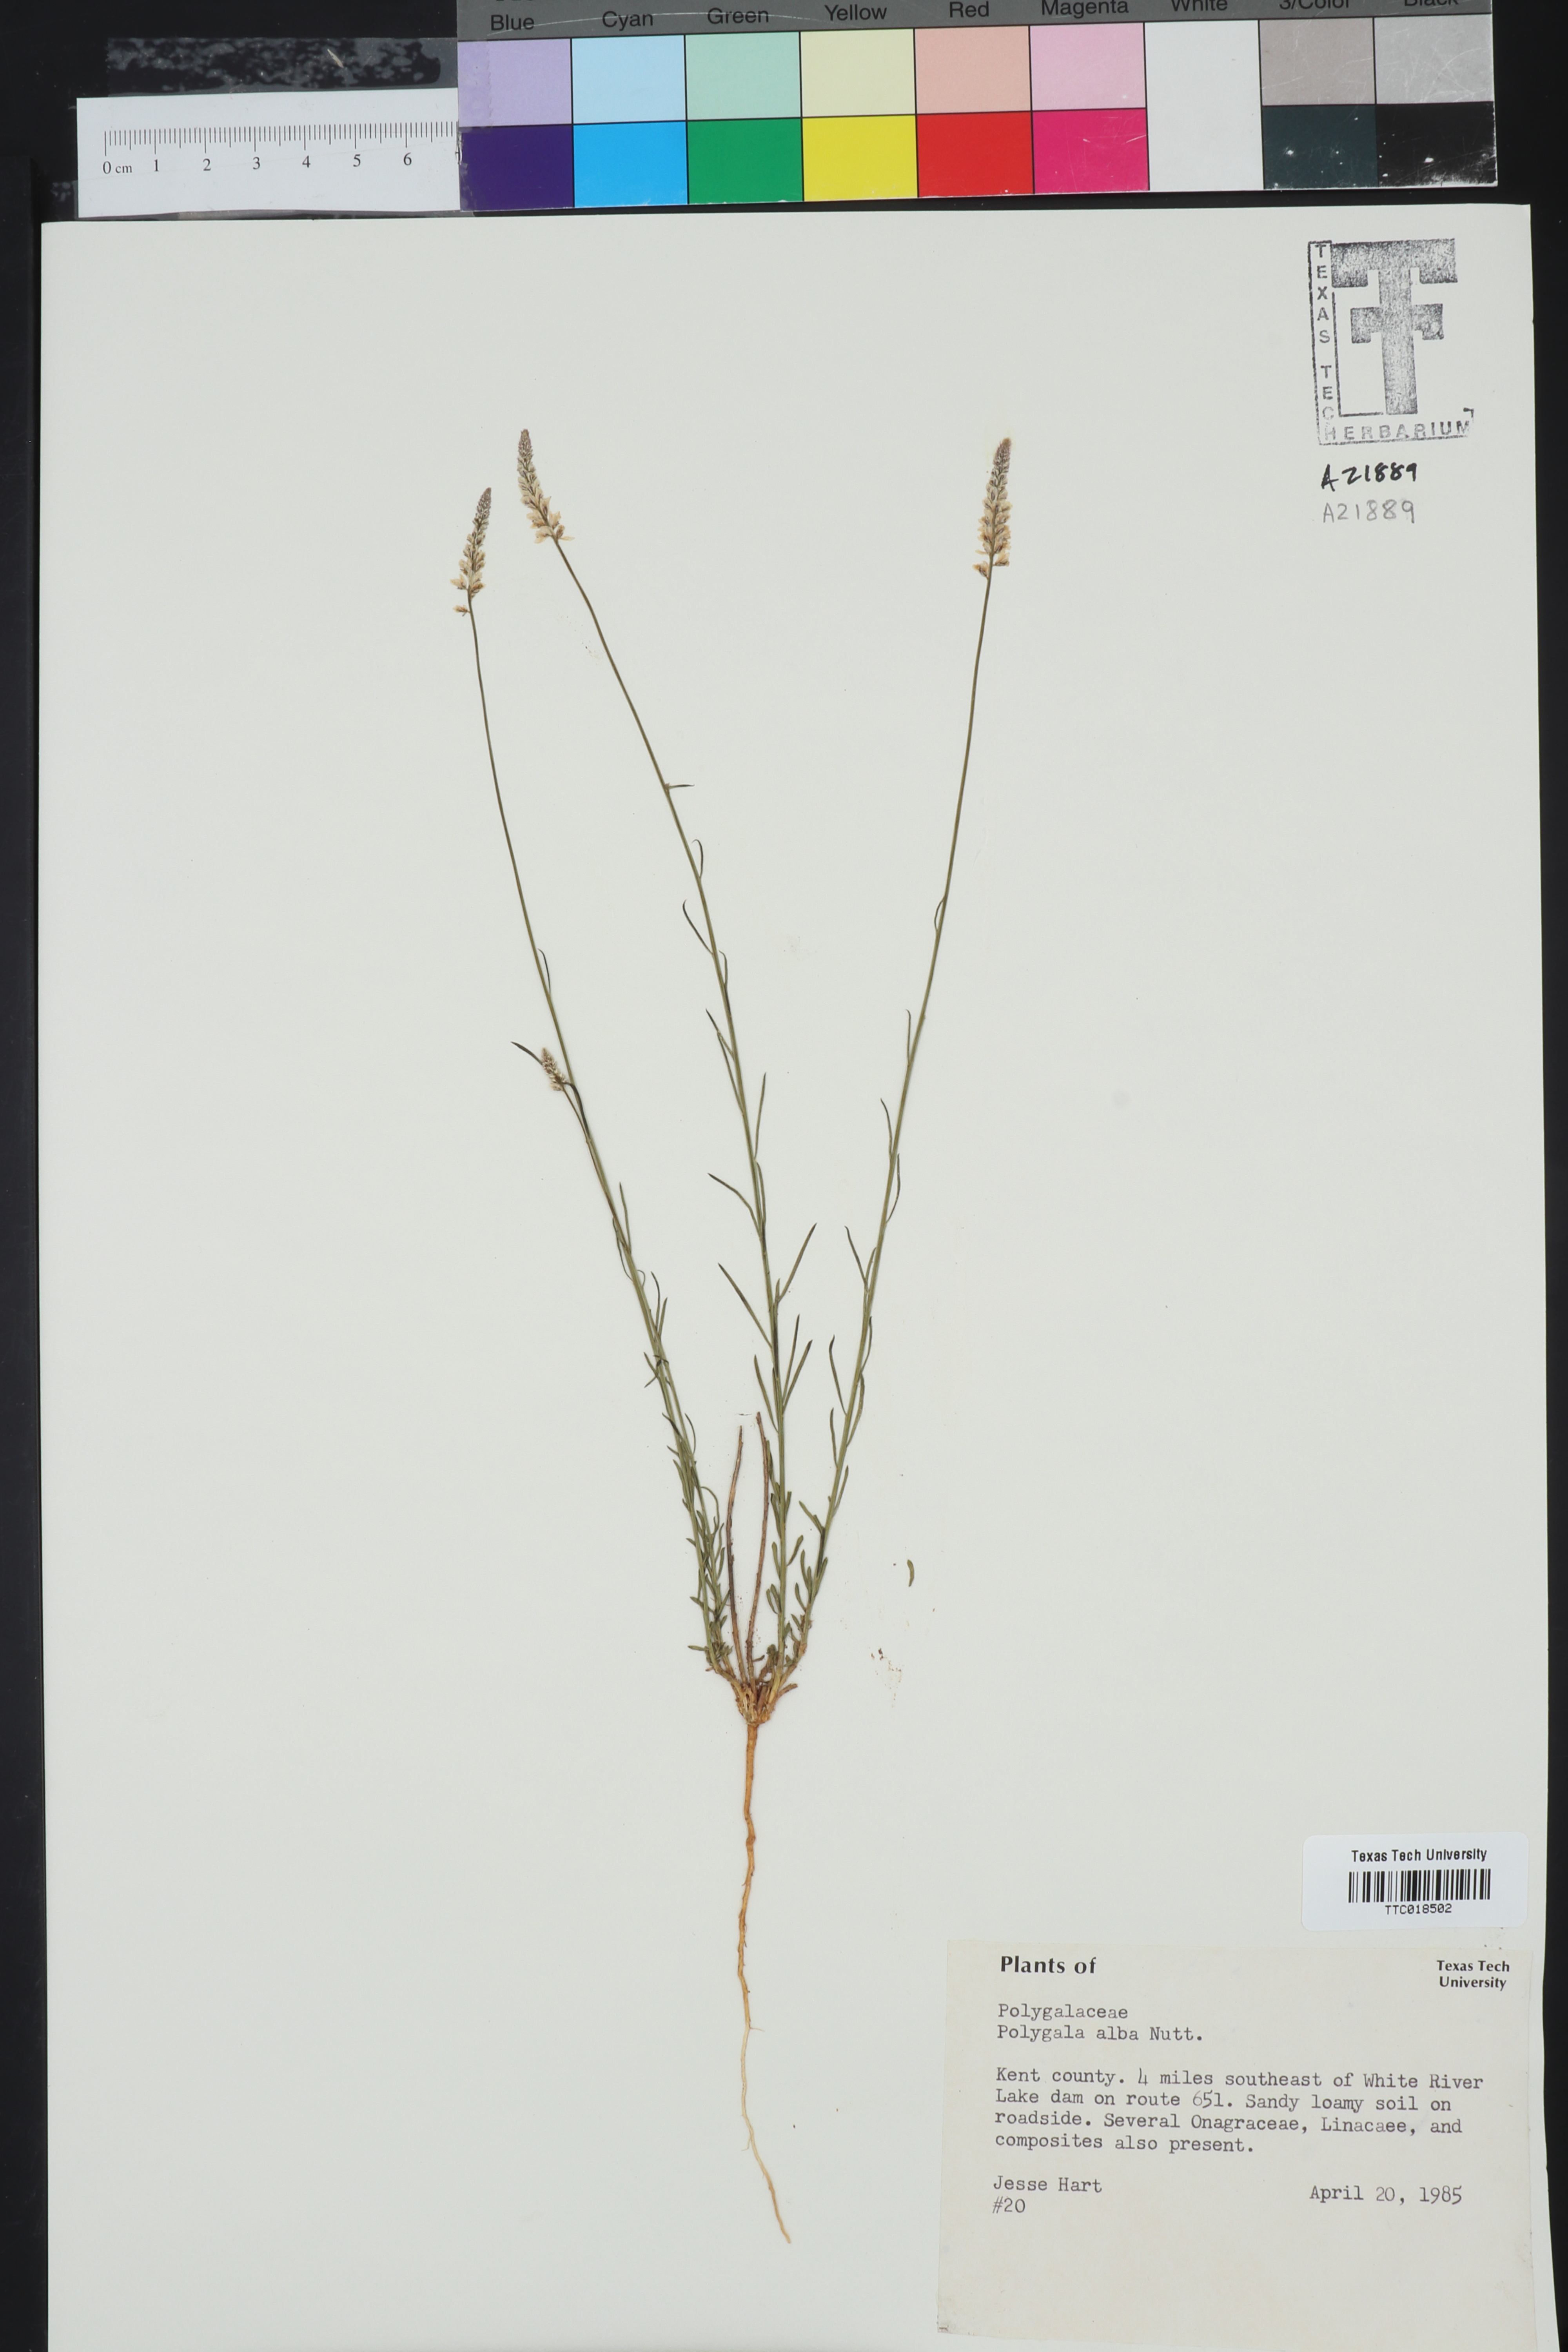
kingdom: Plantae
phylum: Tracheophyta
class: Magnoliopsida
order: Fabales
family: Polygalaceae
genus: Polygala
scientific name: Polygala alba
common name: White milkwort
